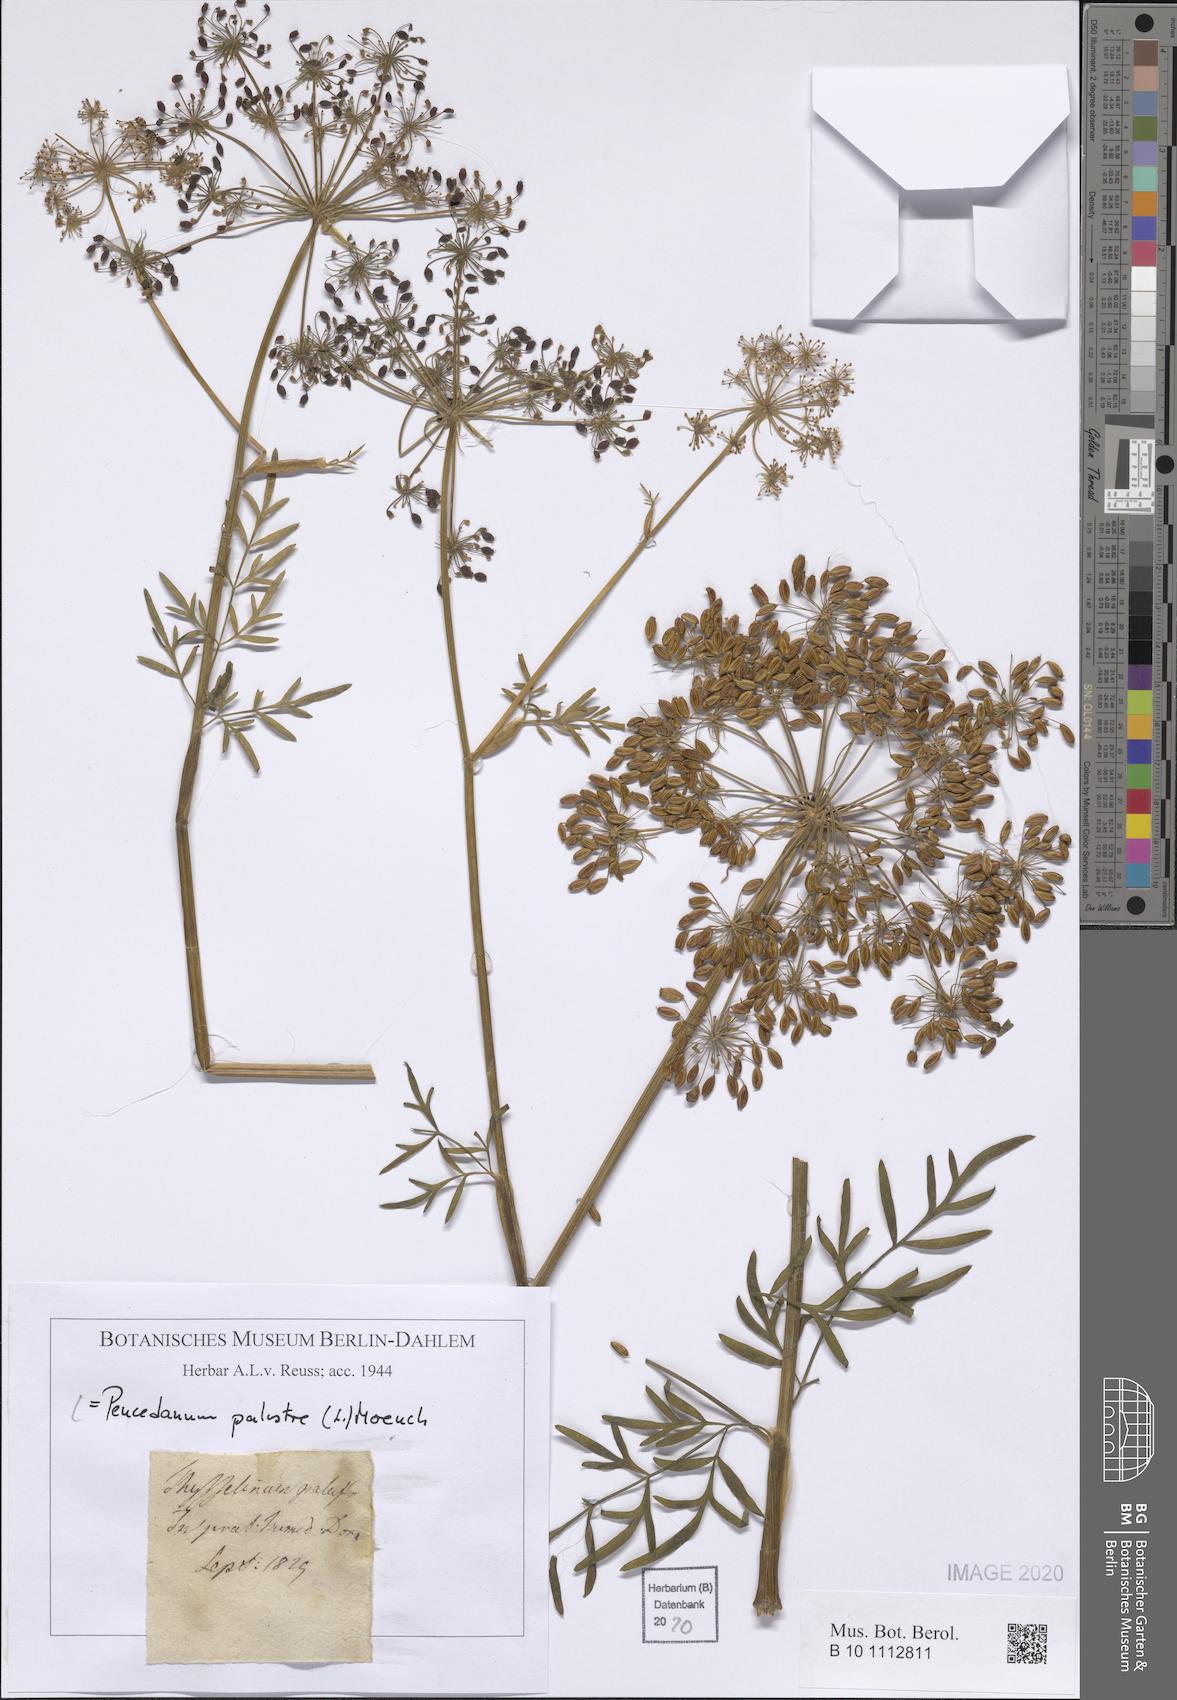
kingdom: Plantae
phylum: Tracheophyta
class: Magnoliopsida
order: Apiales
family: Apiaceae
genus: Thysselinum
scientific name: Thysselinum palustre
